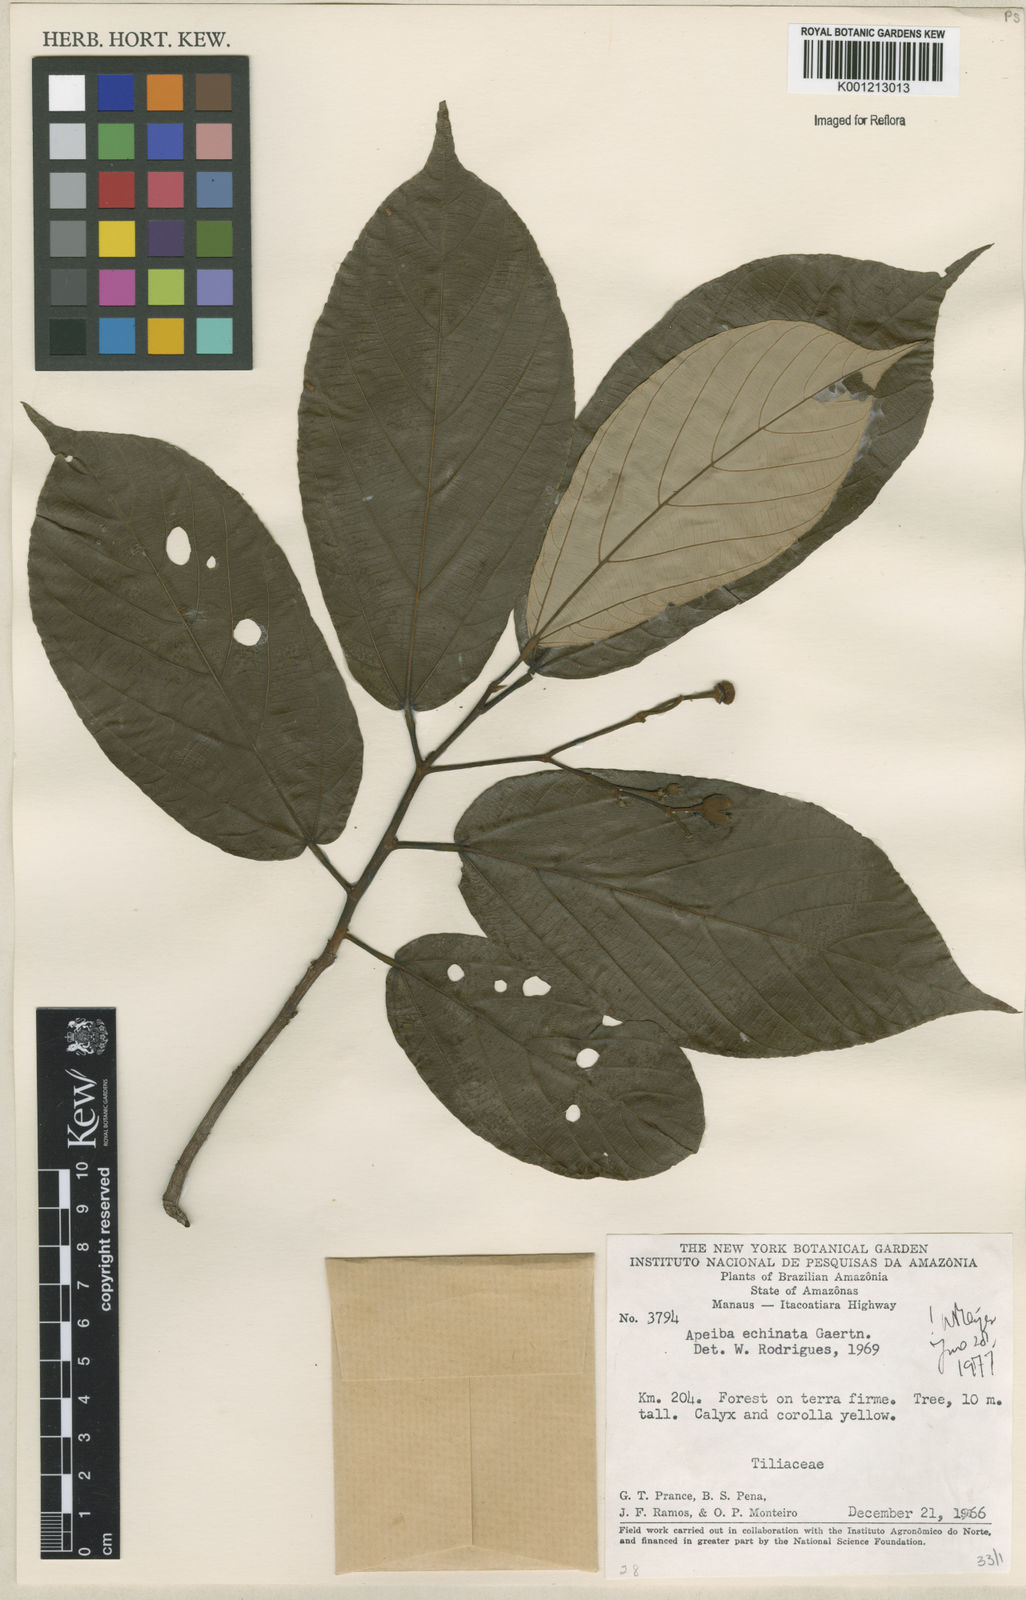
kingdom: Plantae
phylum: Tracheophyta
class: Magnoliopsida
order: Malvales
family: Malvaceae
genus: Apeiba
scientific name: Apeiba
